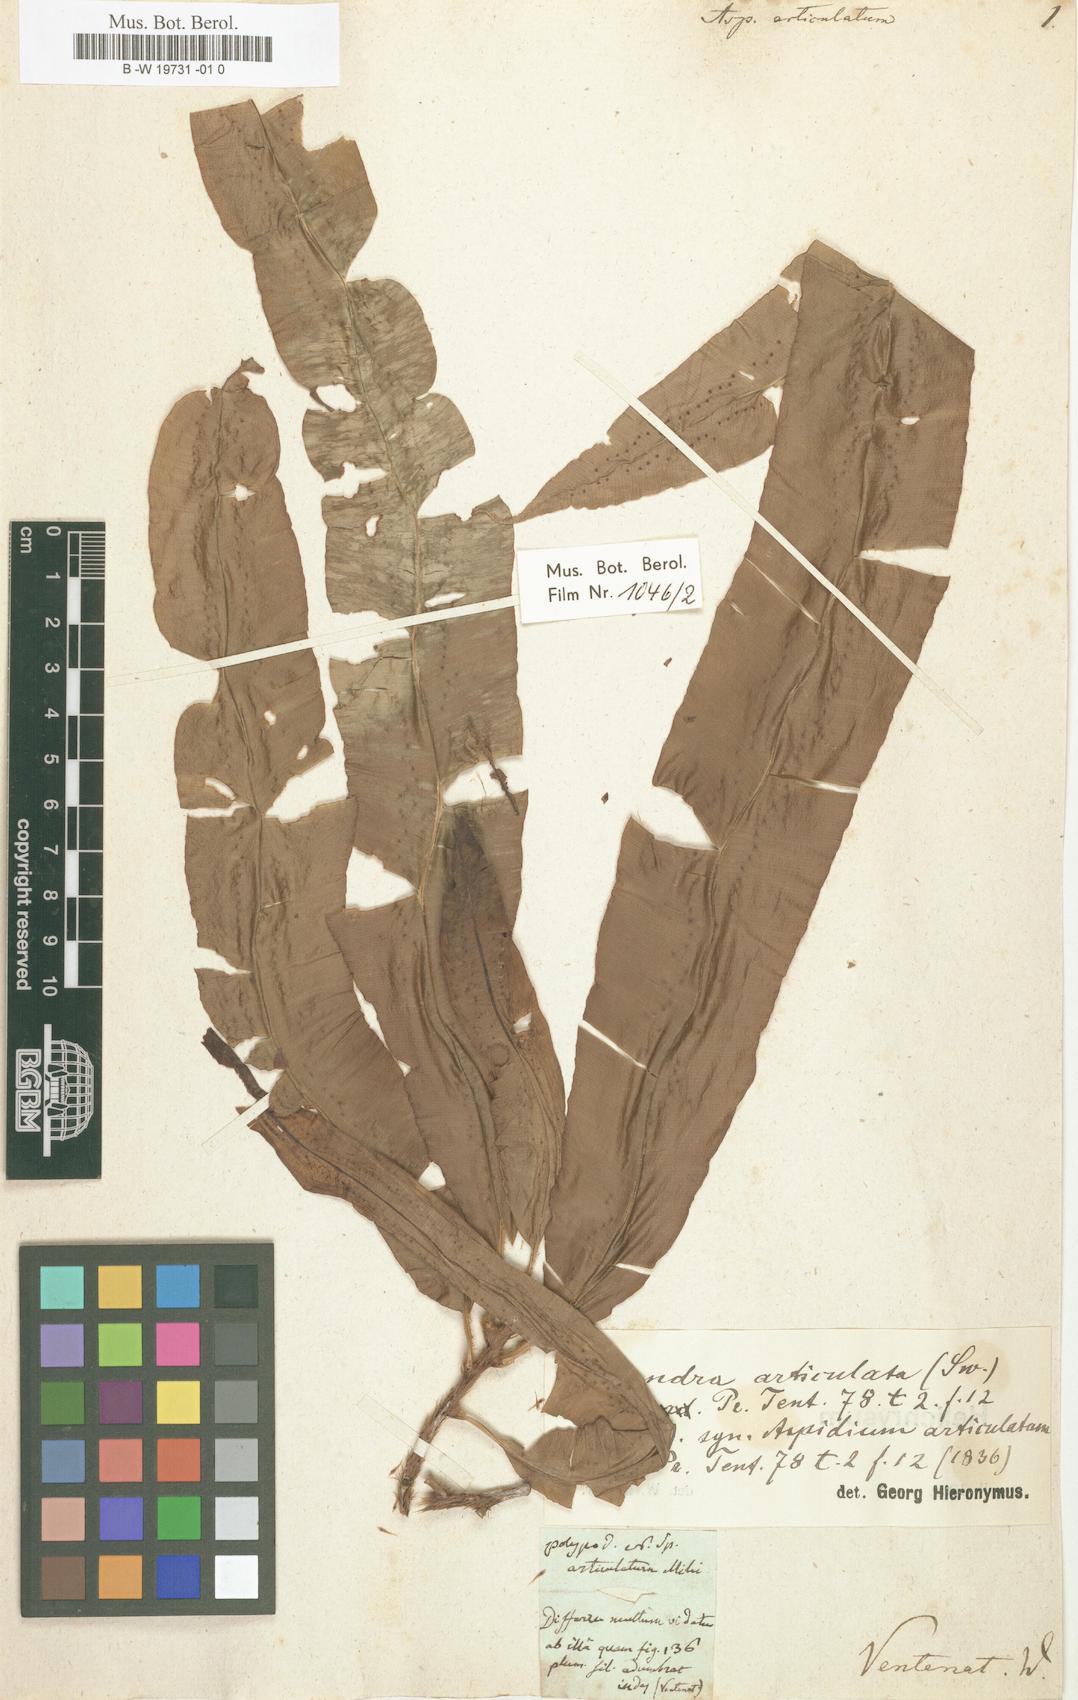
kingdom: Plantae
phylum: Tracheophyta
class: Polypodiopsida
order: Polypodiales
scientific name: Polypodiales
